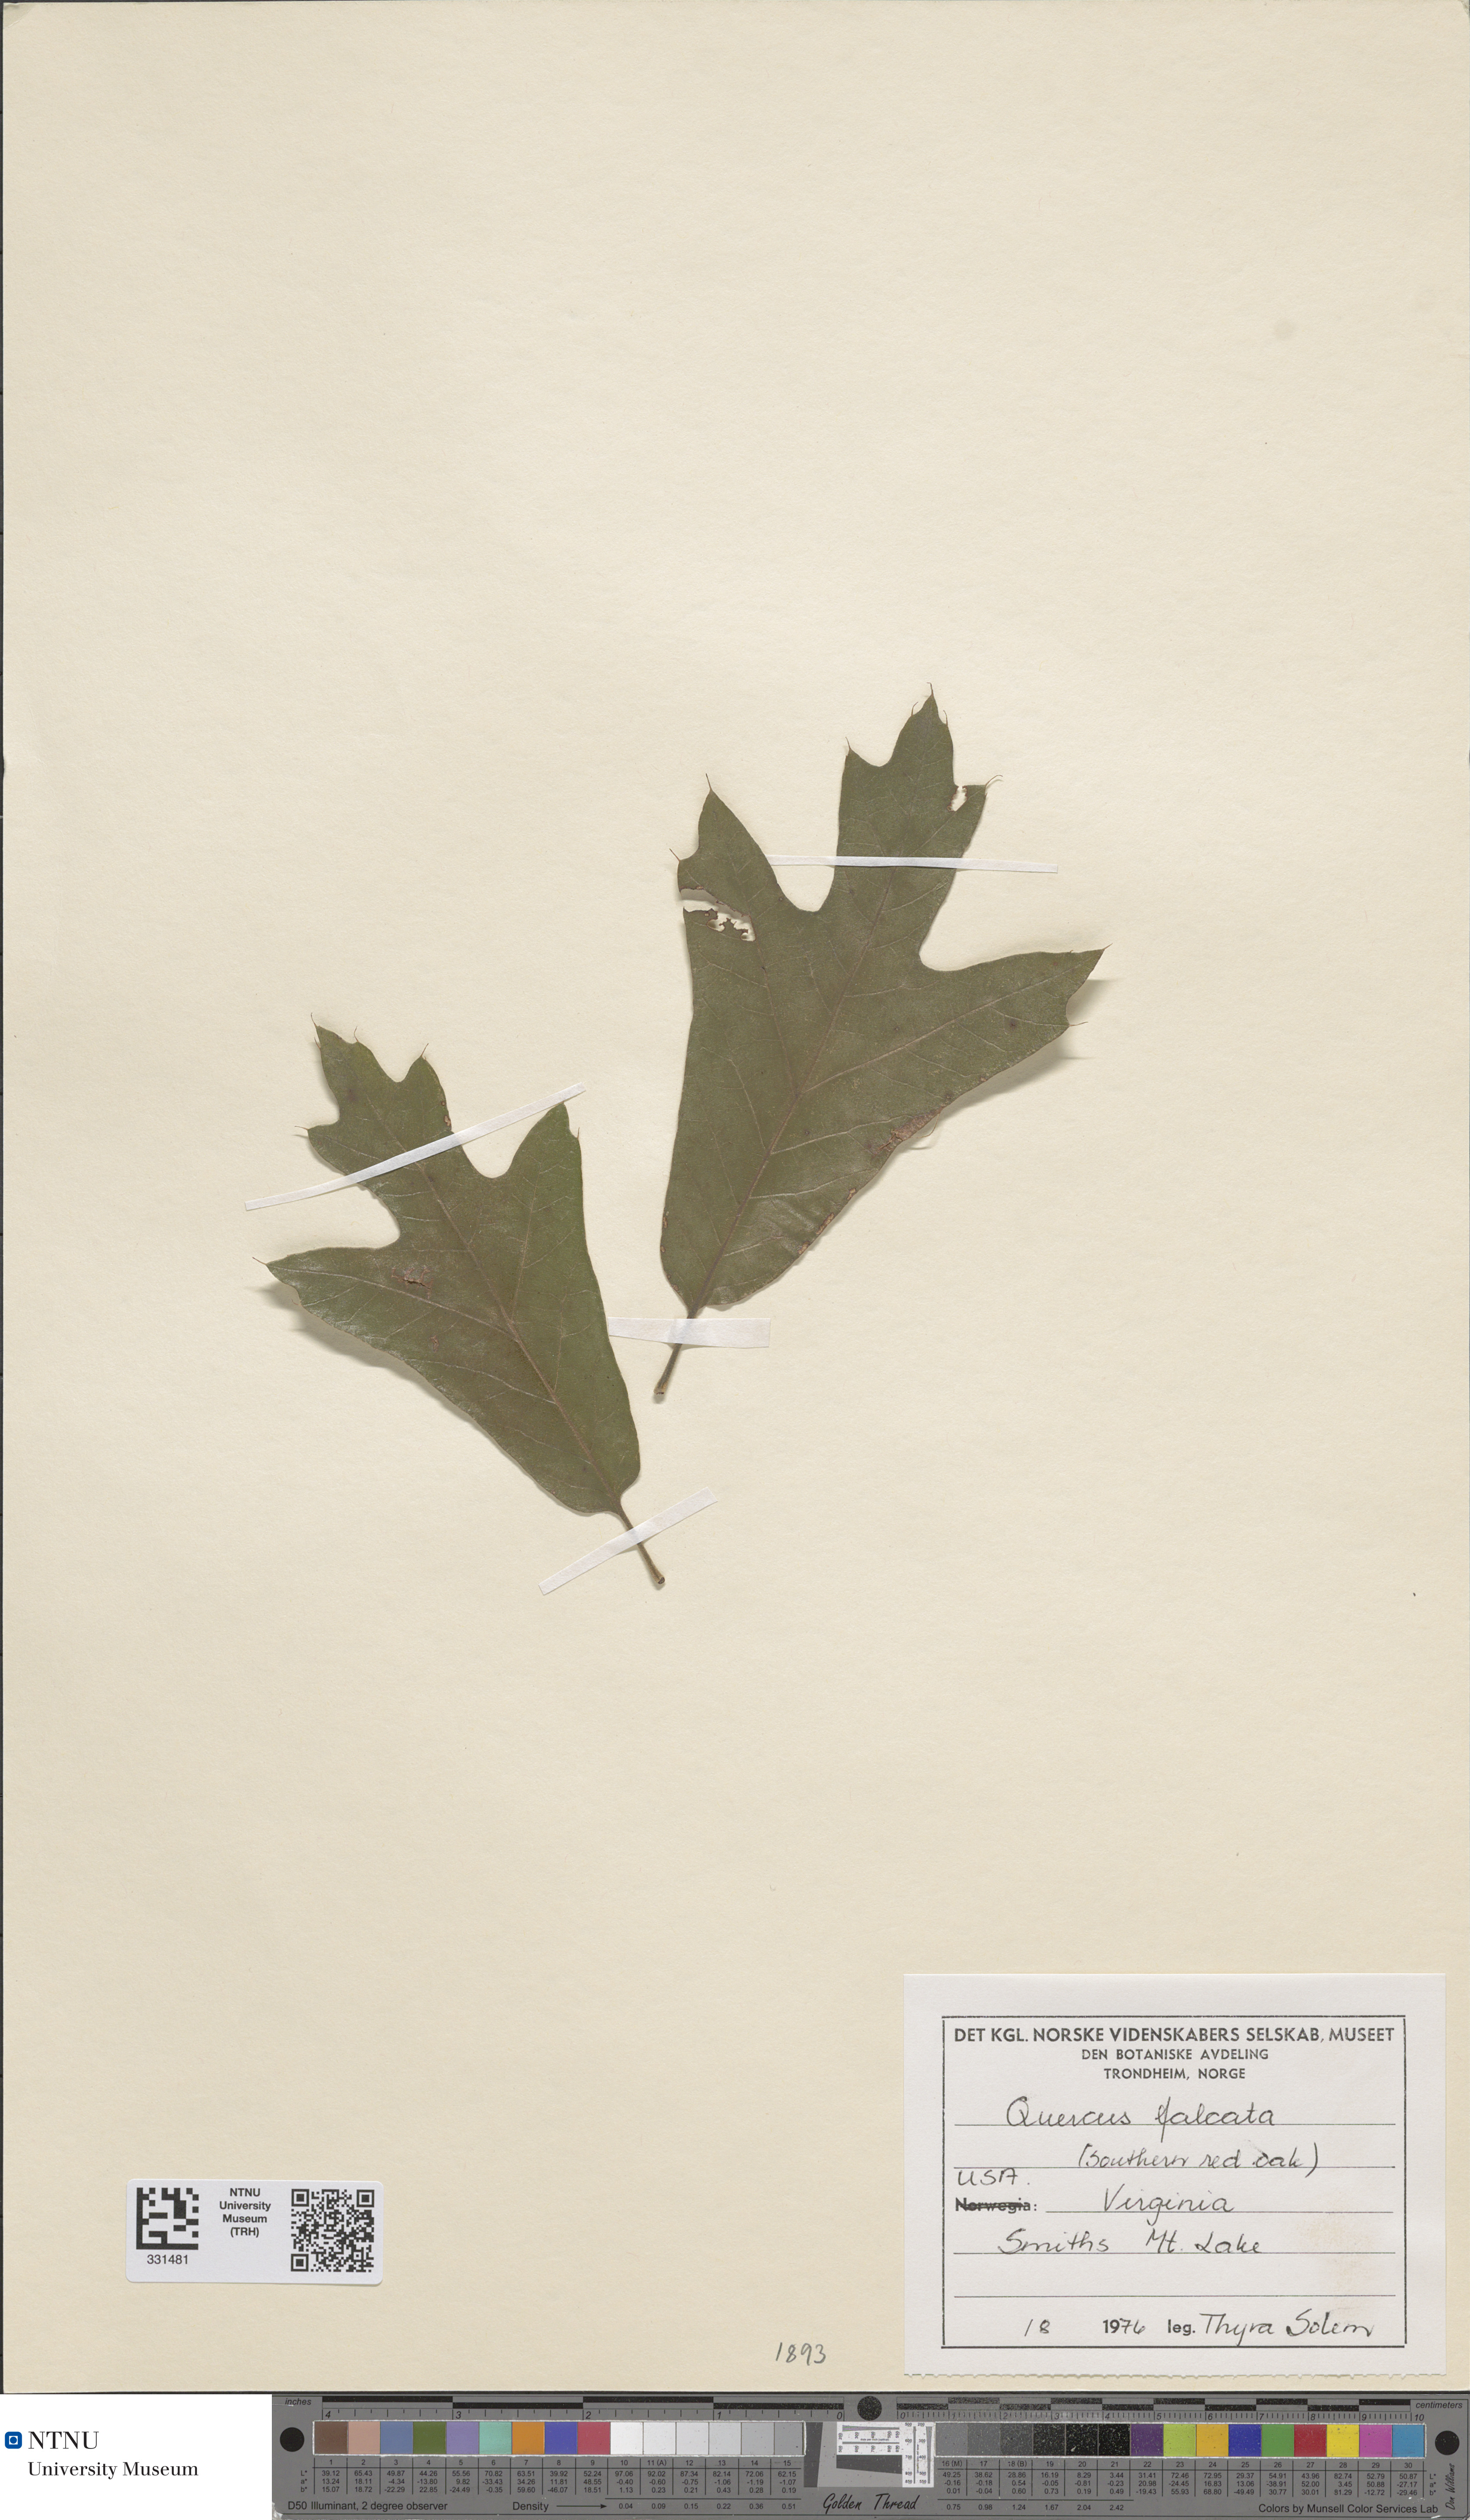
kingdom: Plantae
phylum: Tracheophyta
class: Magnoliopsida
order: Fagales
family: Fagaceae
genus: Quercus
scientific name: Quercus falcata
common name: Southern red oak
